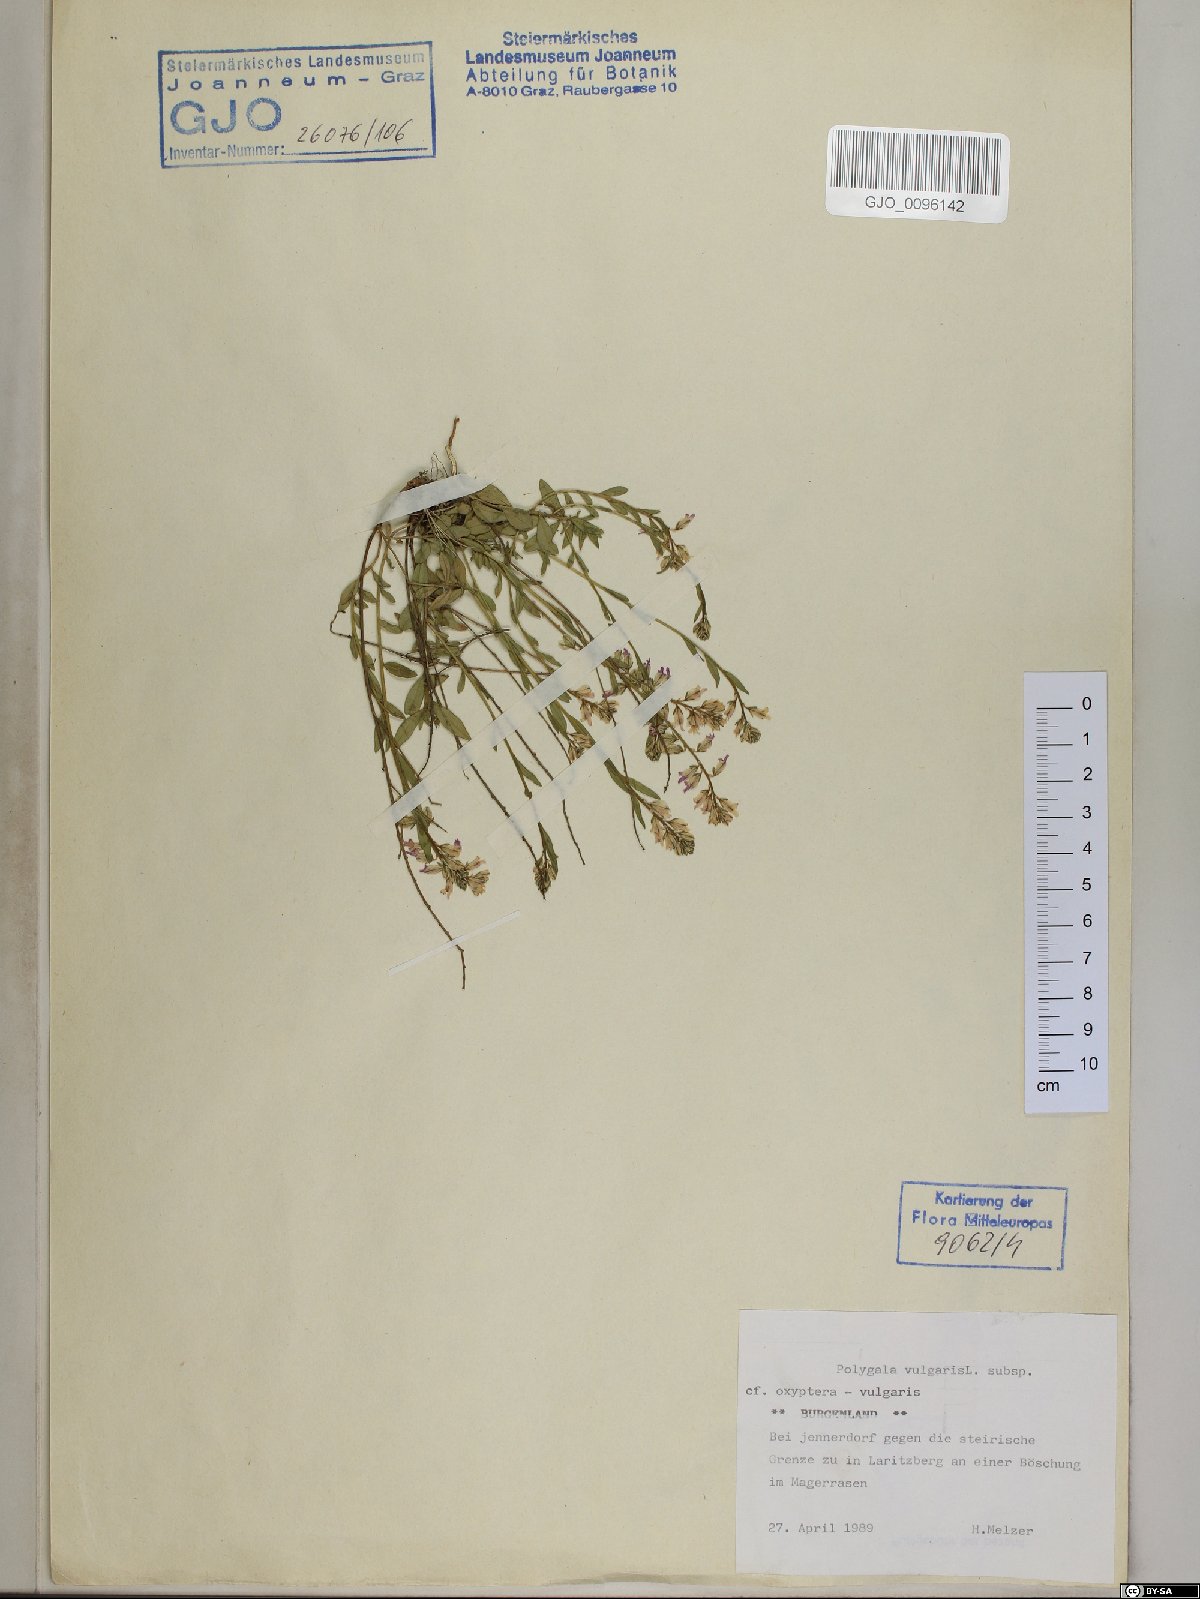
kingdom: Plantae
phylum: Tracheophyta
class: Magnoliopsida
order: Fabales
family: Polygalaceae
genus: Polygala
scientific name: Polygala vulgaris
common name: Common milkwort
